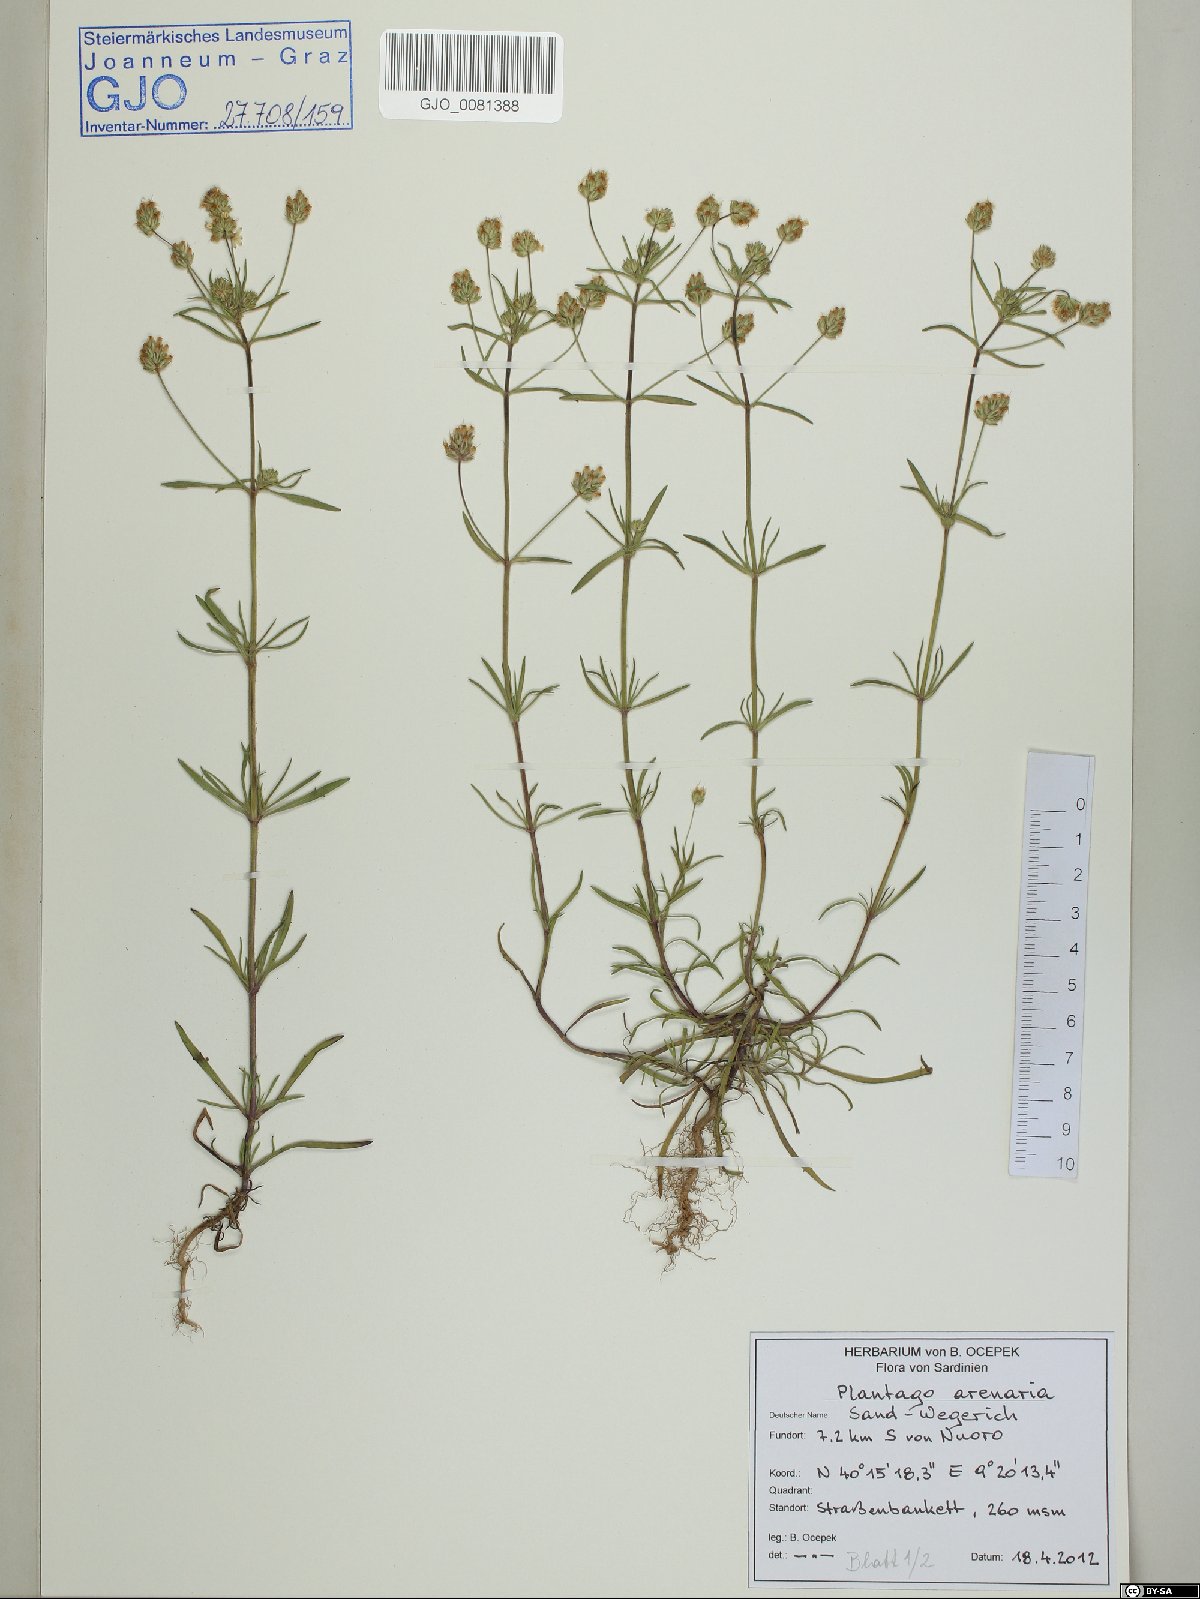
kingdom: Plantae
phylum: Tracheophyta
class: Magnoliopsida
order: Lamiales
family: Plantaginaceae
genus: Plantago
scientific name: Plantago arenaria
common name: Branched plantain
